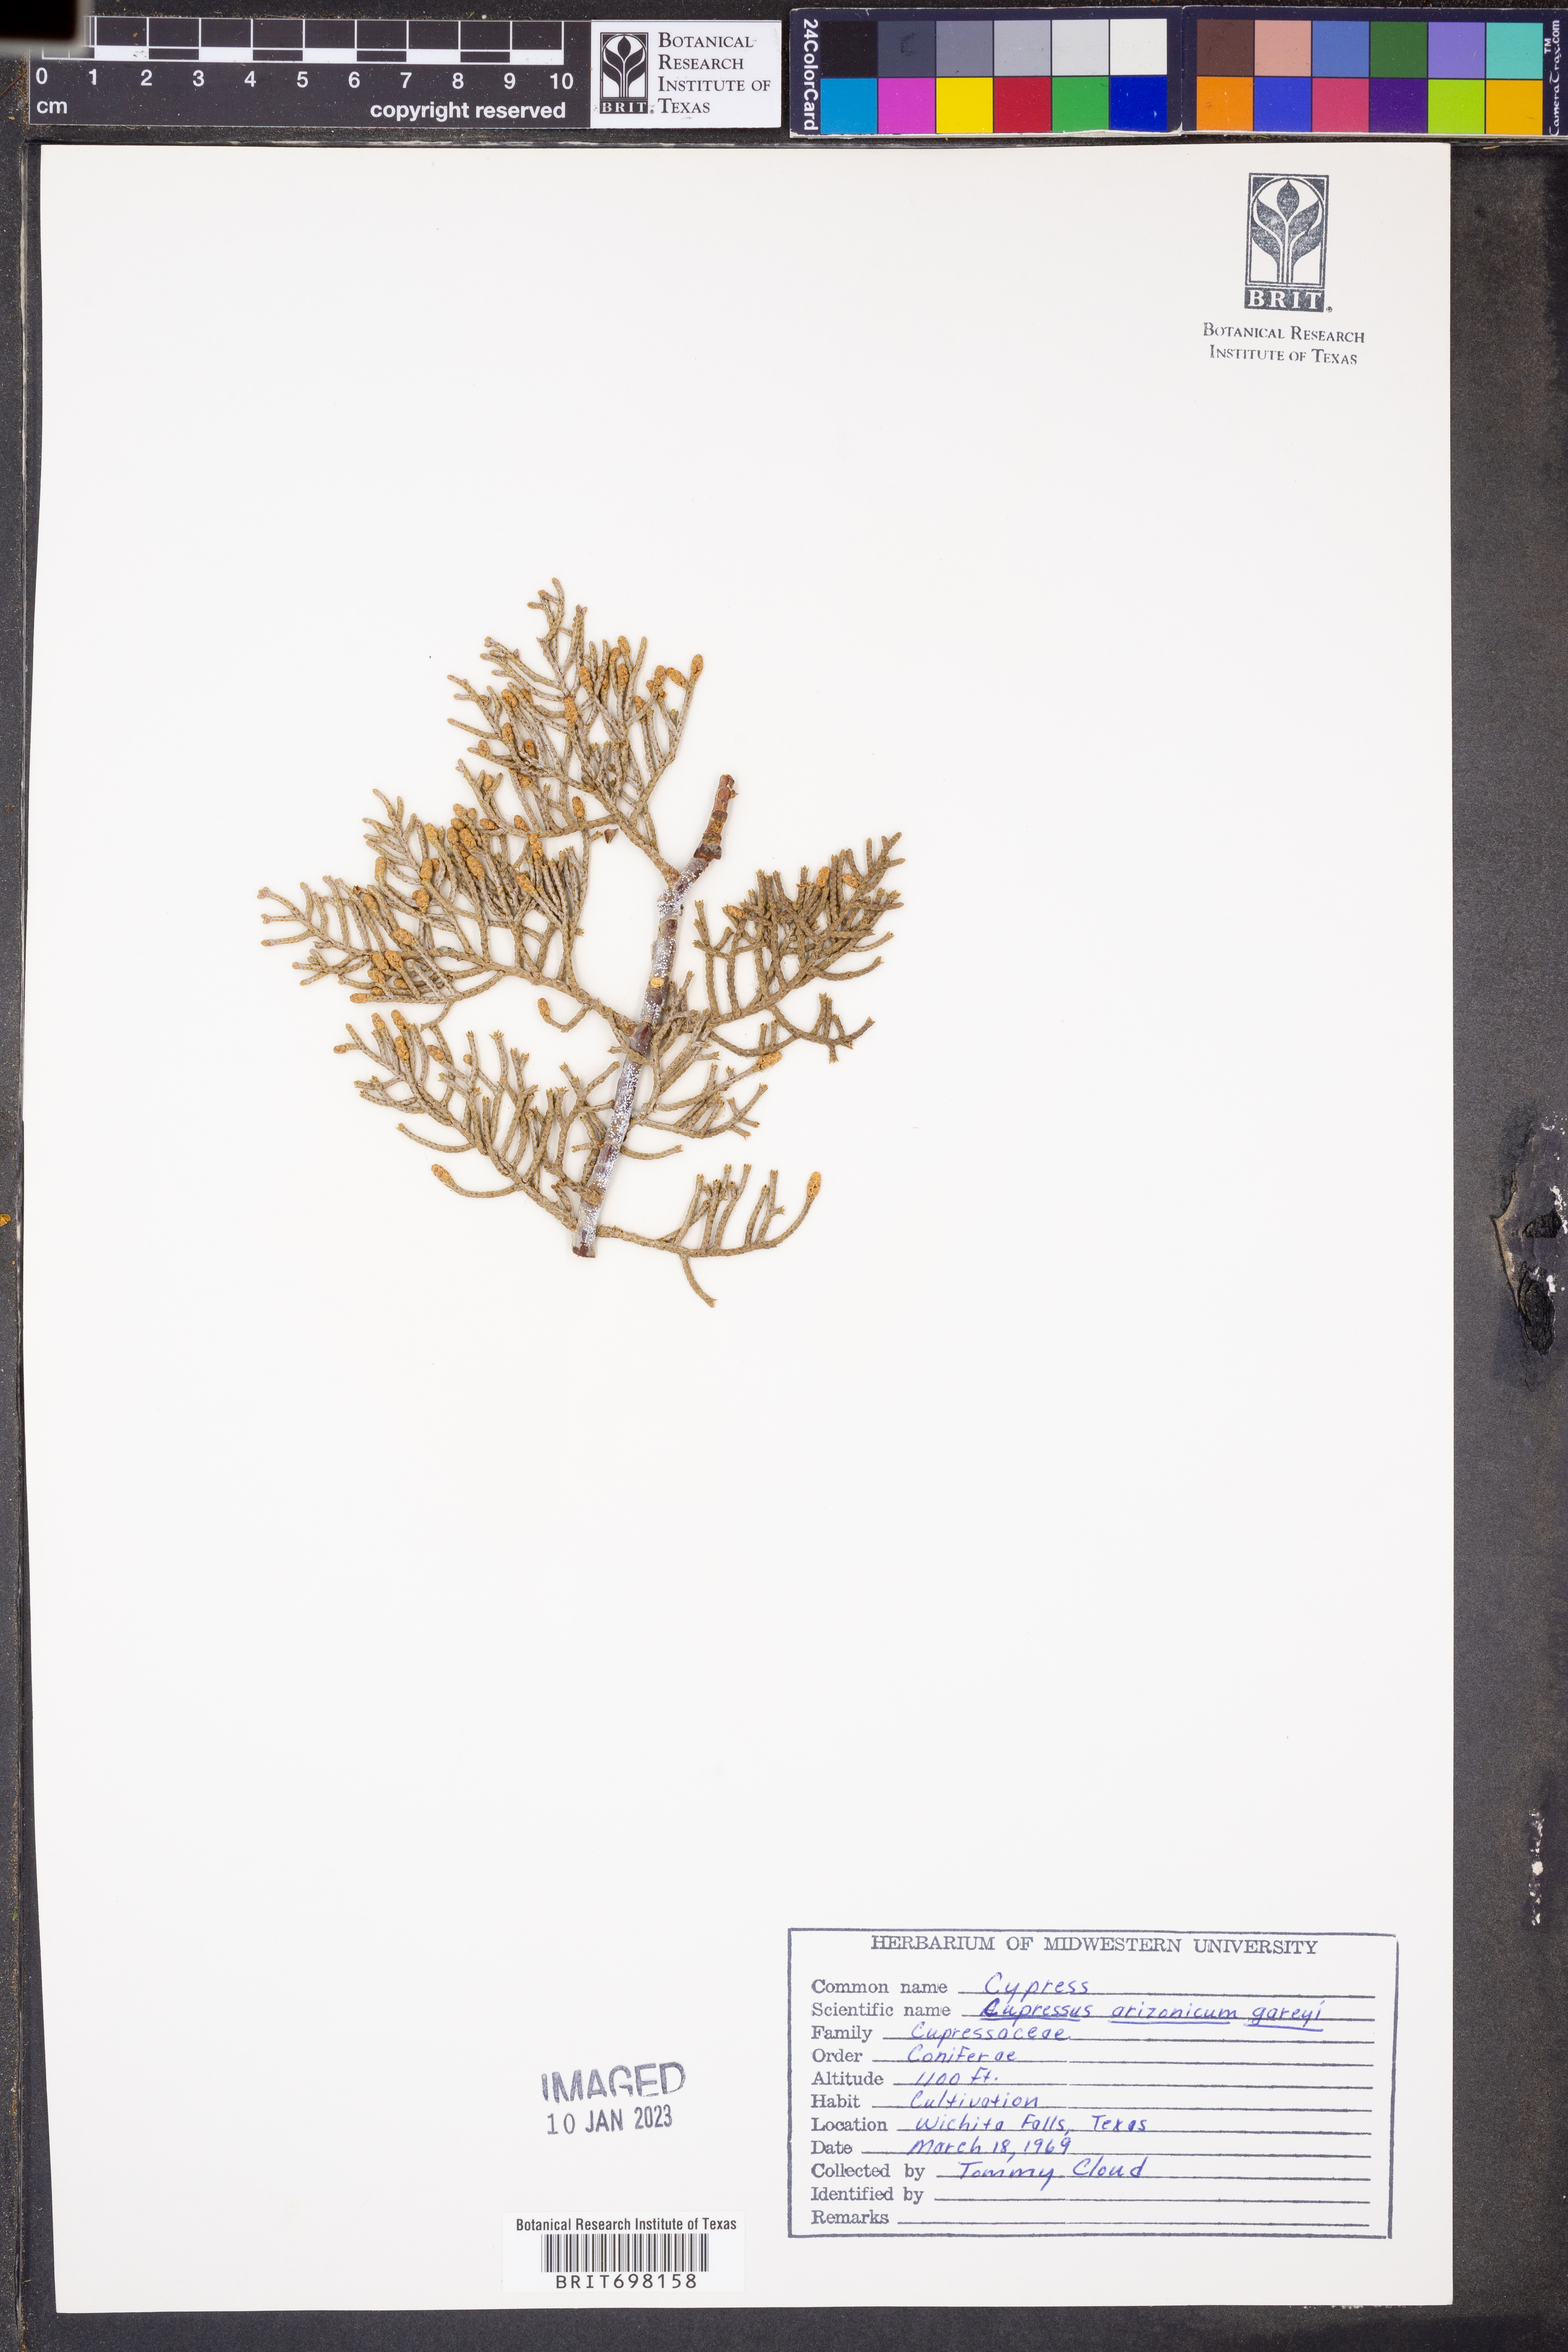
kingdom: Plantae
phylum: Tracheophyta
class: Pinopsida
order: Pinales
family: Cupressaceae
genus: Cupressus
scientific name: Cupressus arizonica
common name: Arizona cypress
